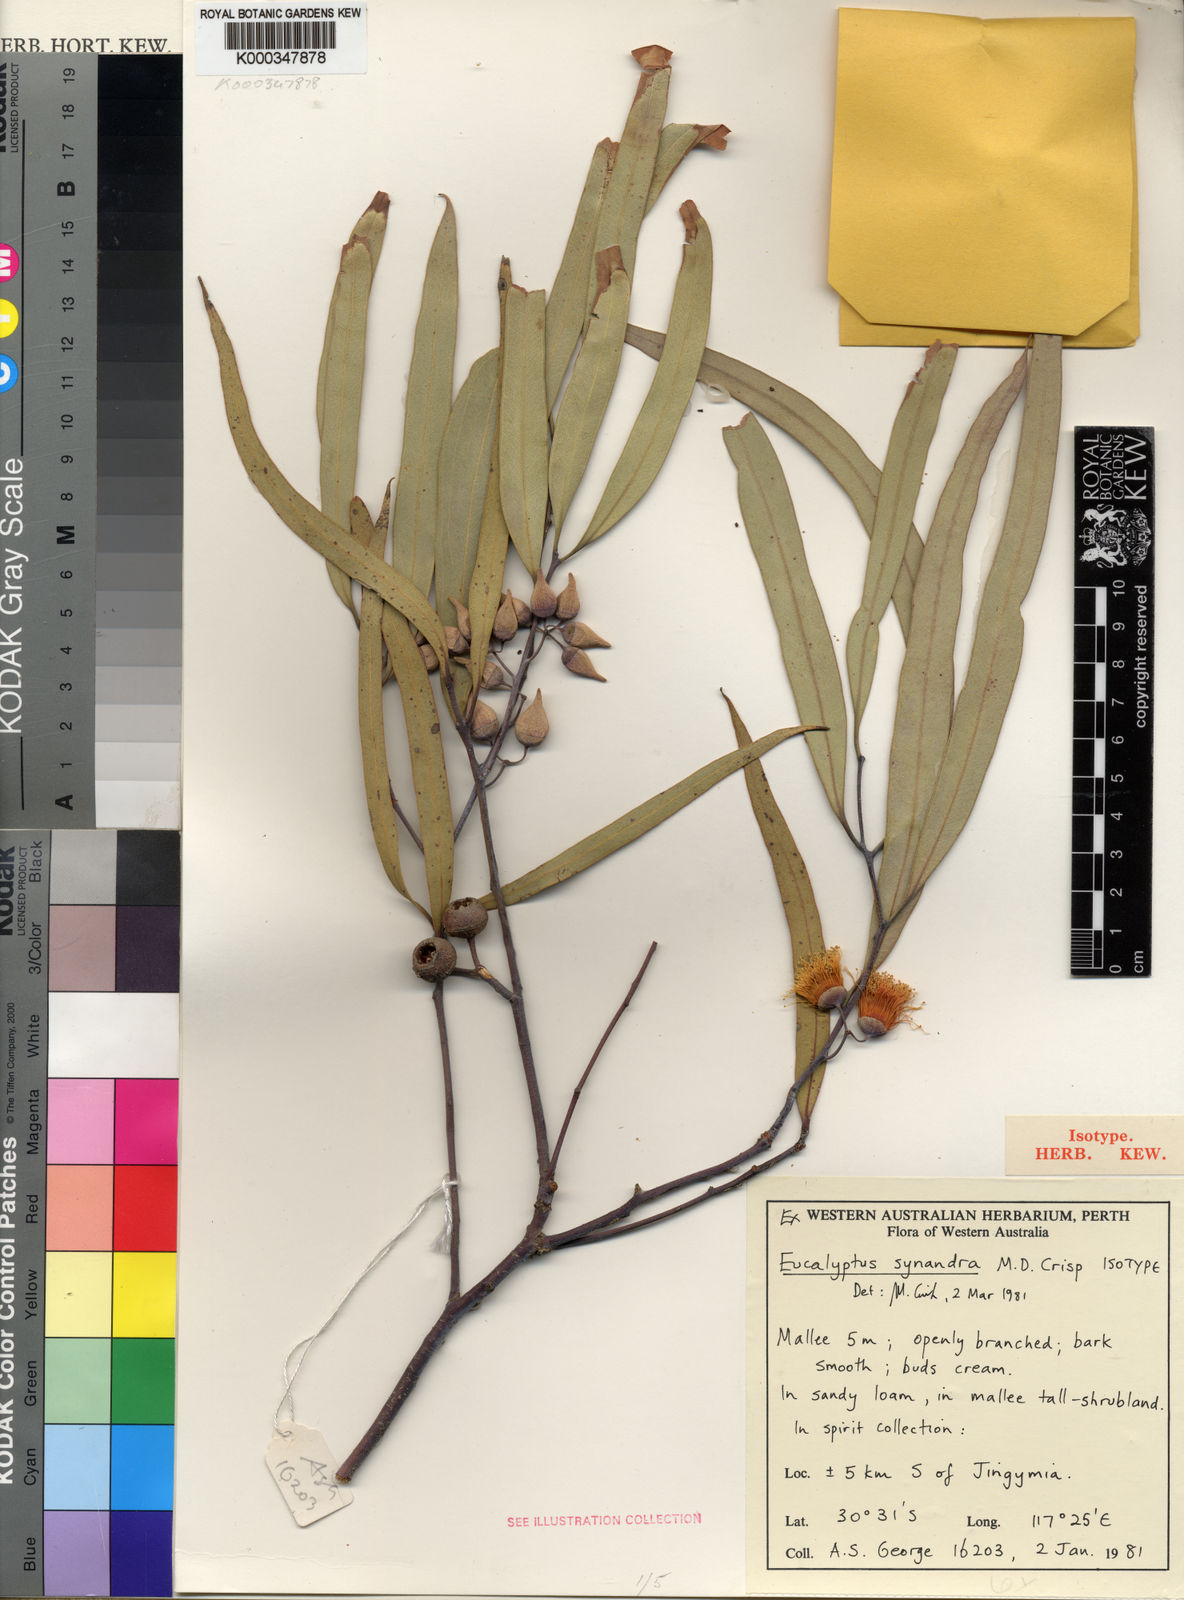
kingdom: Plantae
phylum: Tracheophyta
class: Magnoliopsida
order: Myrtales
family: Myrtaceae
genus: Eucalyptus
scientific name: Eucalyptus synandra
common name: Jingymia mallee
